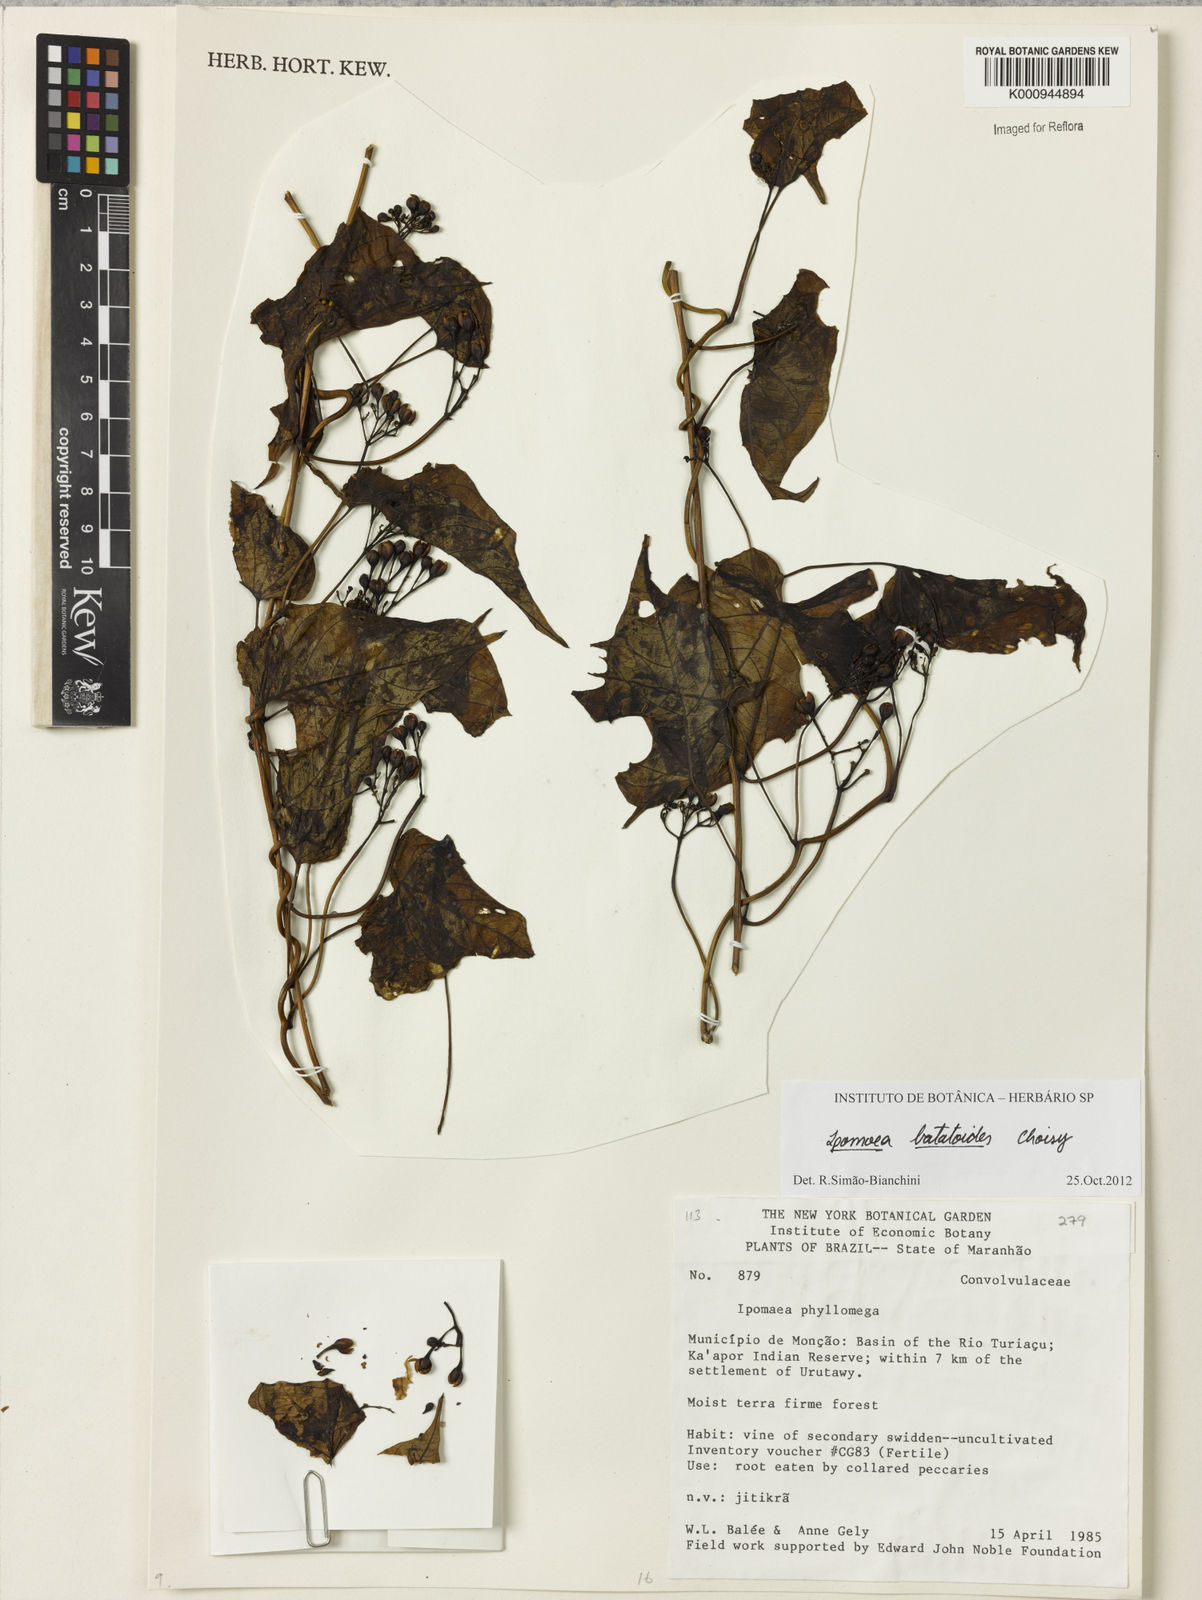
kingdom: Plantae
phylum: Tracheophyta
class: Magnoliopsida
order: Solanales
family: Convolvulaceae
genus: Ipomoea
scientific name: Ipomoea batatoides
